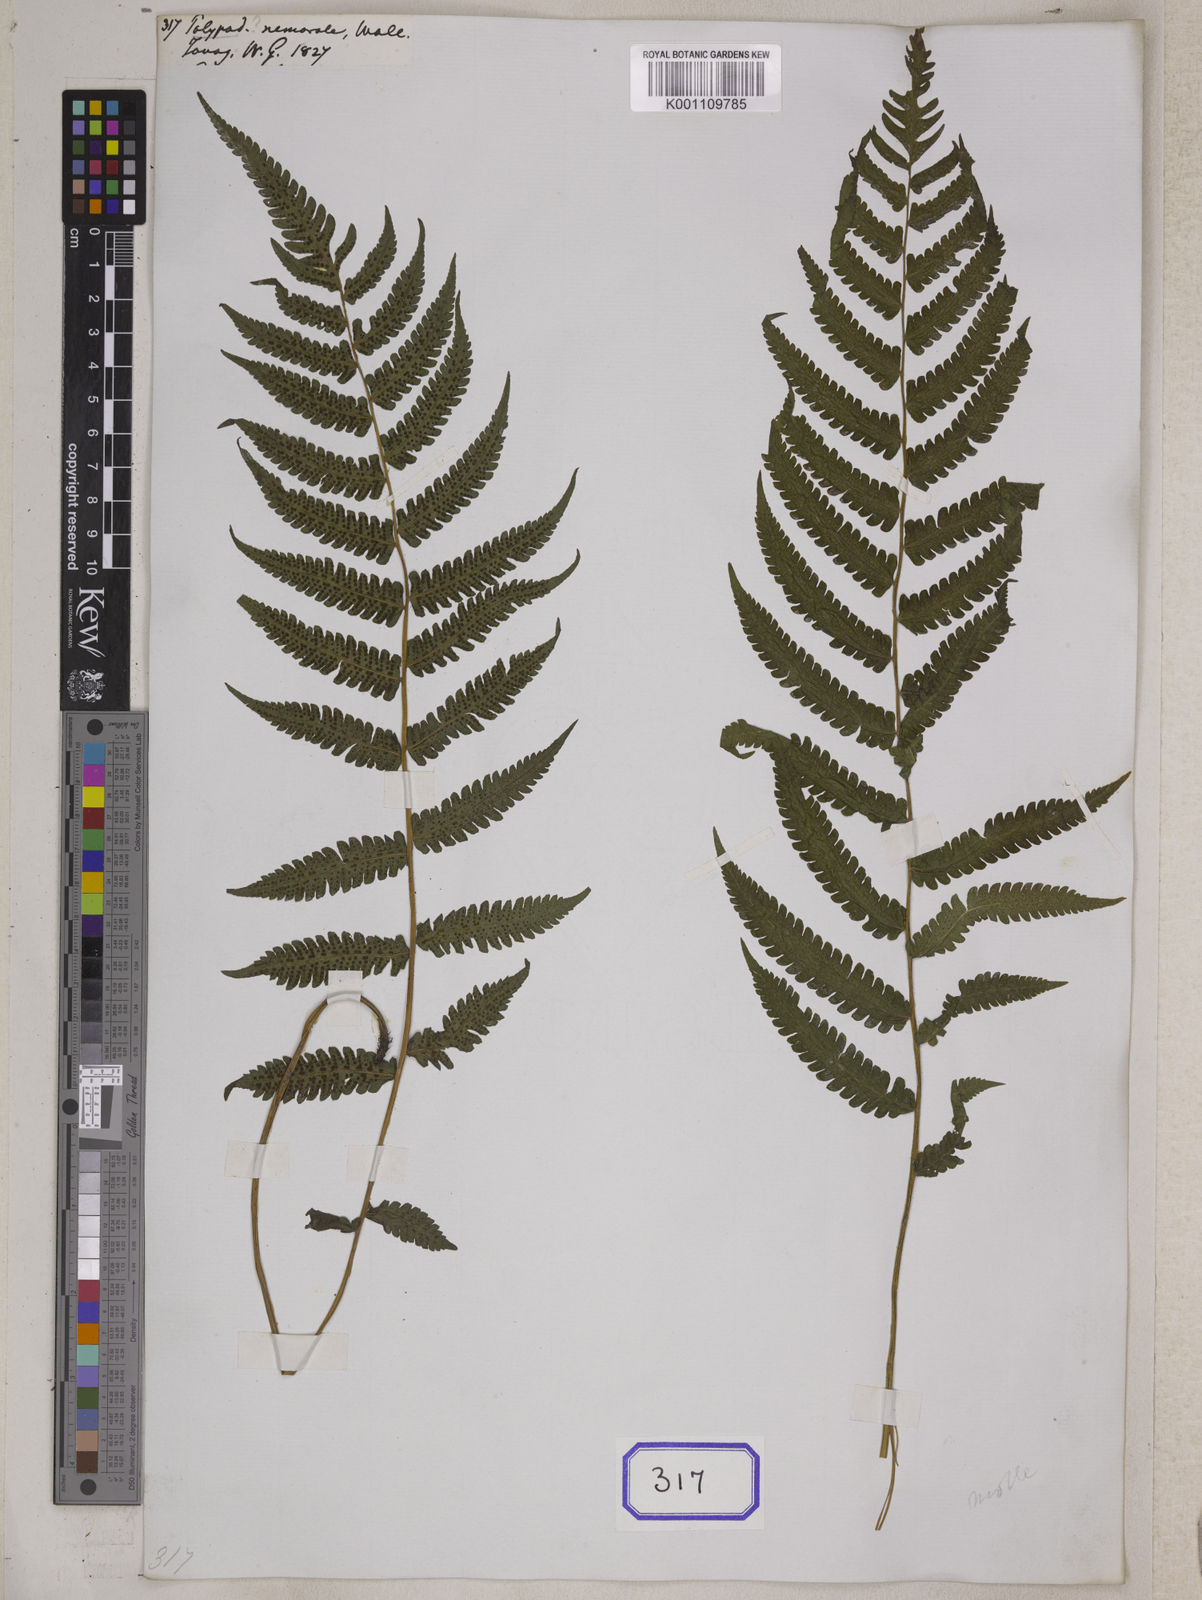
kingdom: Plantae
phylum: Tracheophyta
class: Polypodiopsida
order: Polypodiales
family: Polypodiaceae
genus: Polypodium
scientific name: Polypodium
